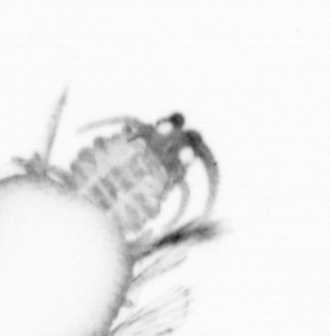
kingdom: Animalia
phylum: Arthropoda
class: Copepoda
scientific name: Copepoda
